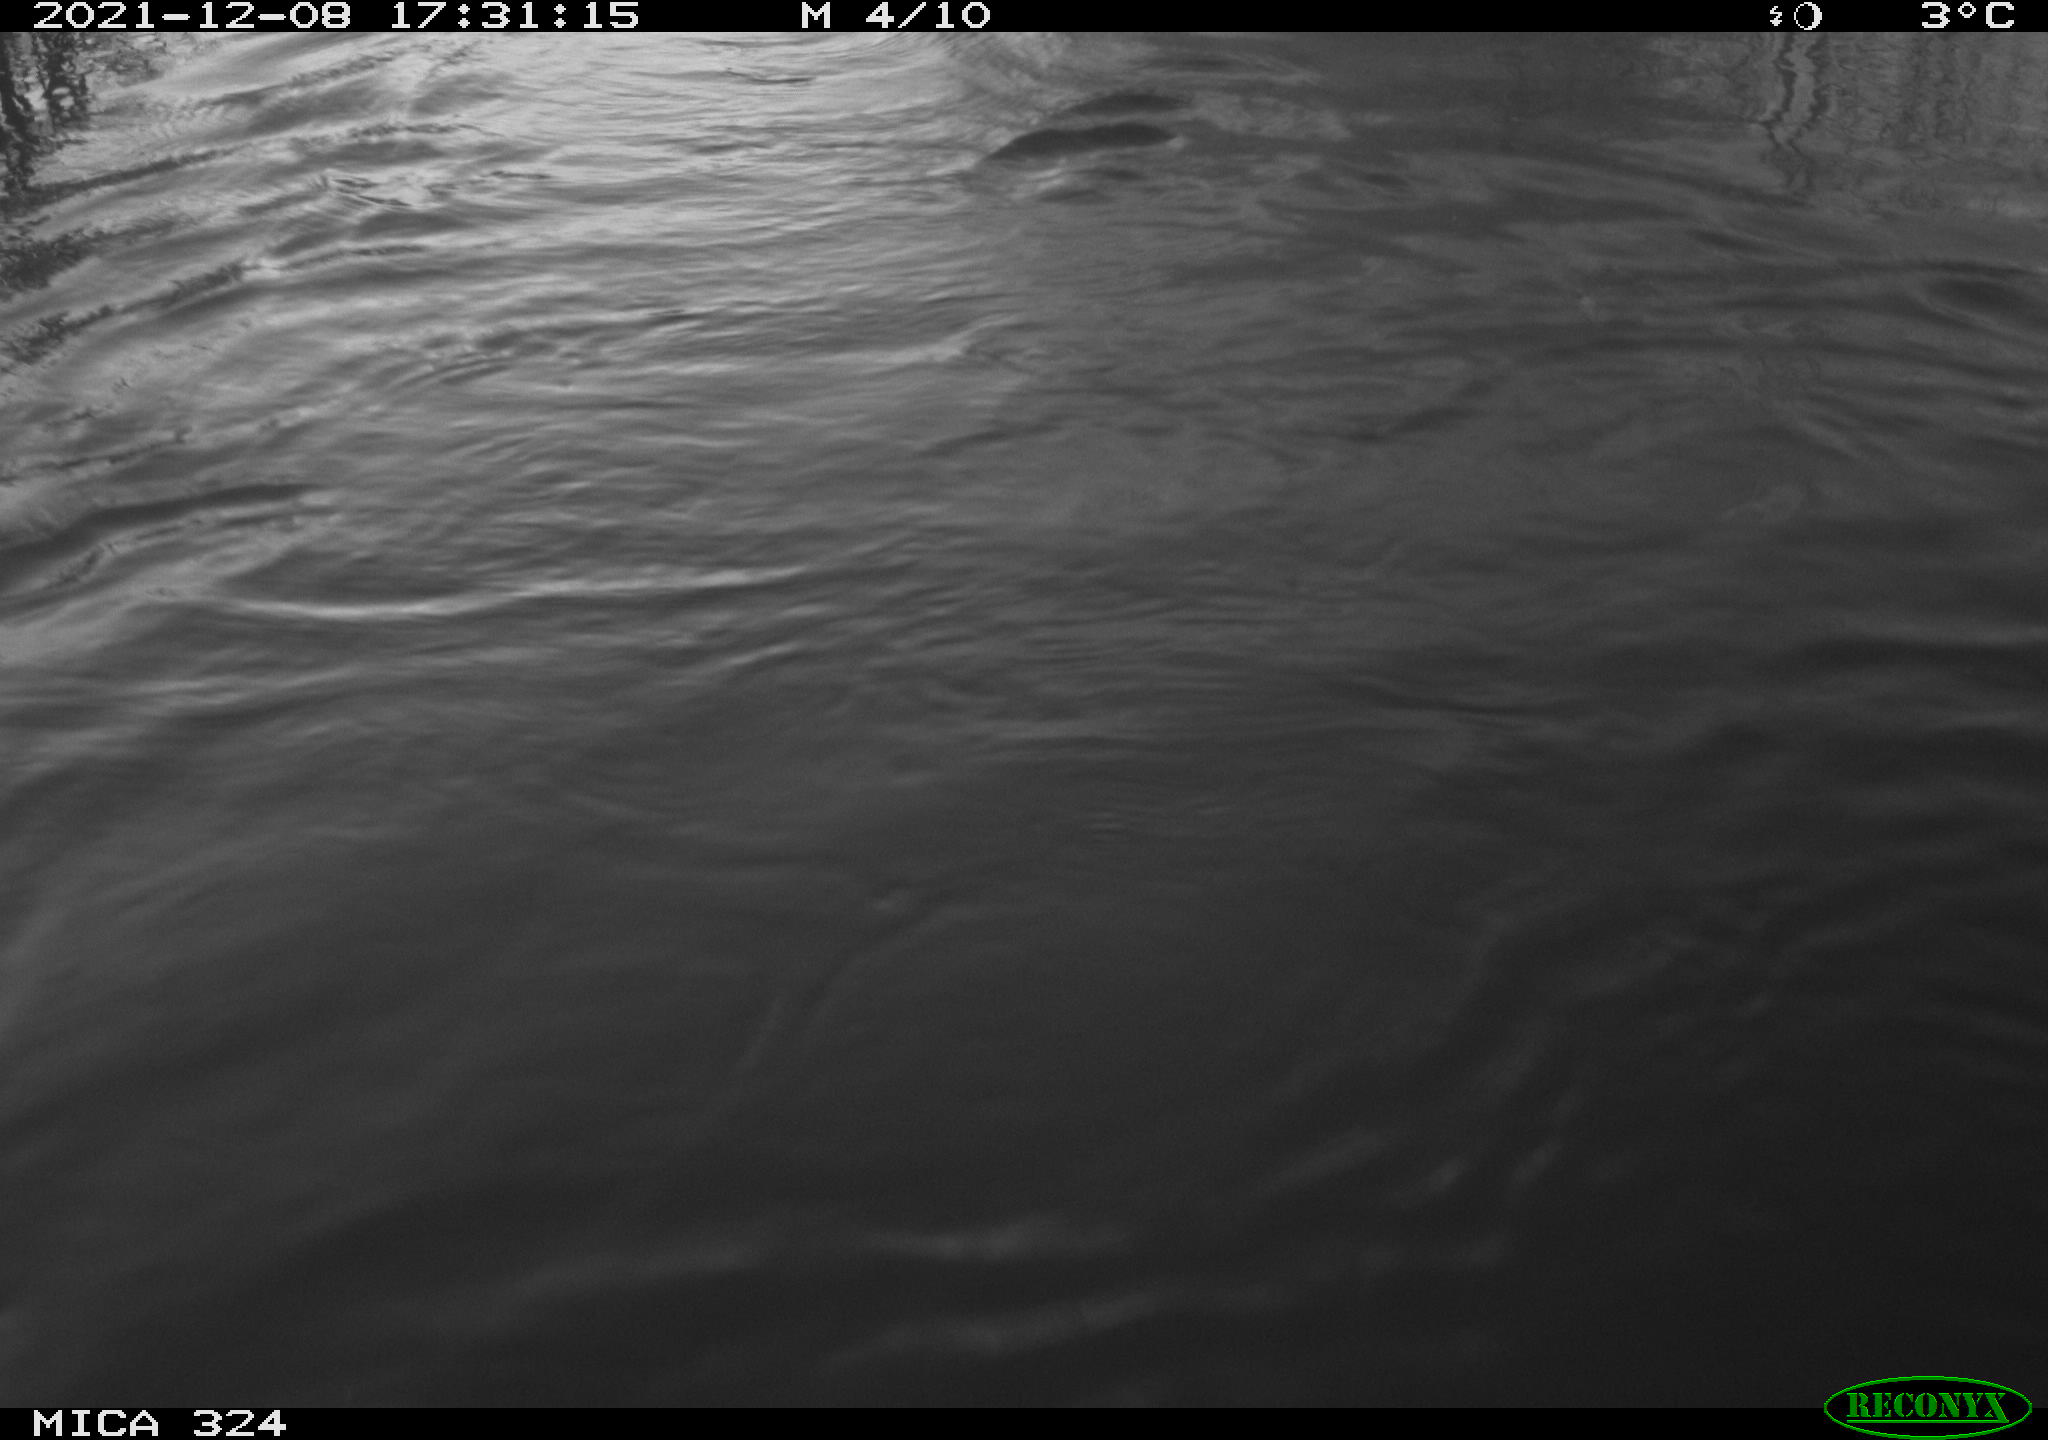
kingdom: Animalia
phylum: Chordata
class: Mammalia
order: Rodentia
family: Cricetidae
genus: Ondatra
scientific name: Ondatra zibethicus
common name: Muskrat
